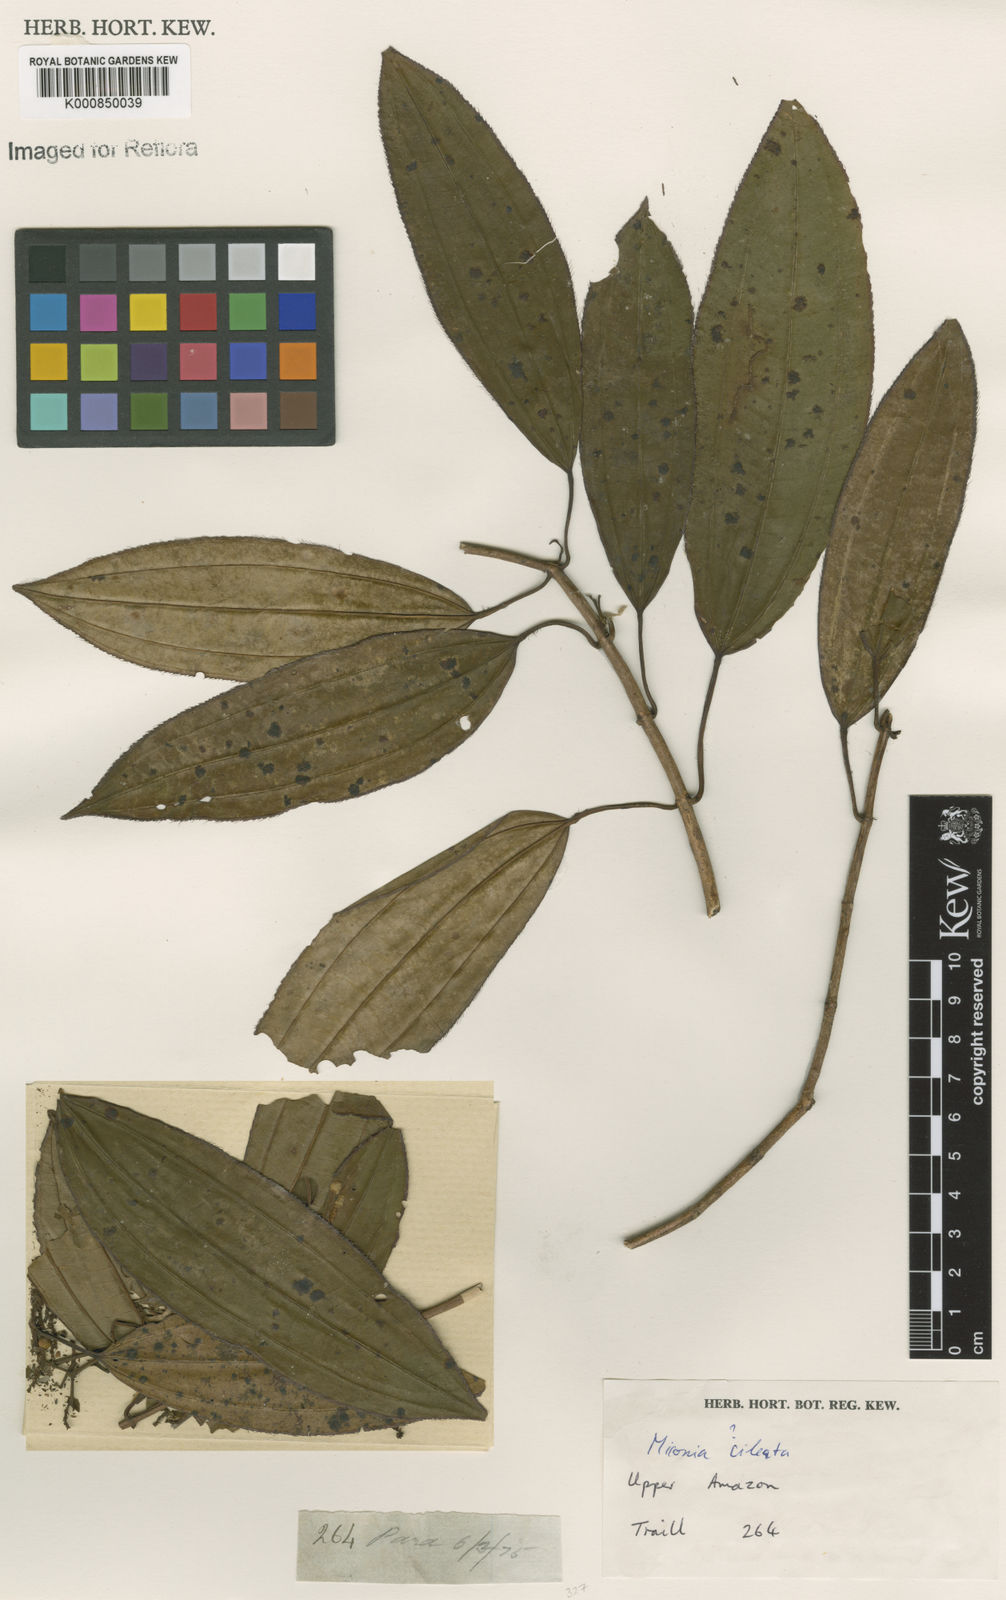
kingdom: Plantae
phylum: Tracheophyta
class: Magnoliopsida
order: Myrtales
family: Melastomataceae
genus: Miconia
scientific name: Miconia ciliata
